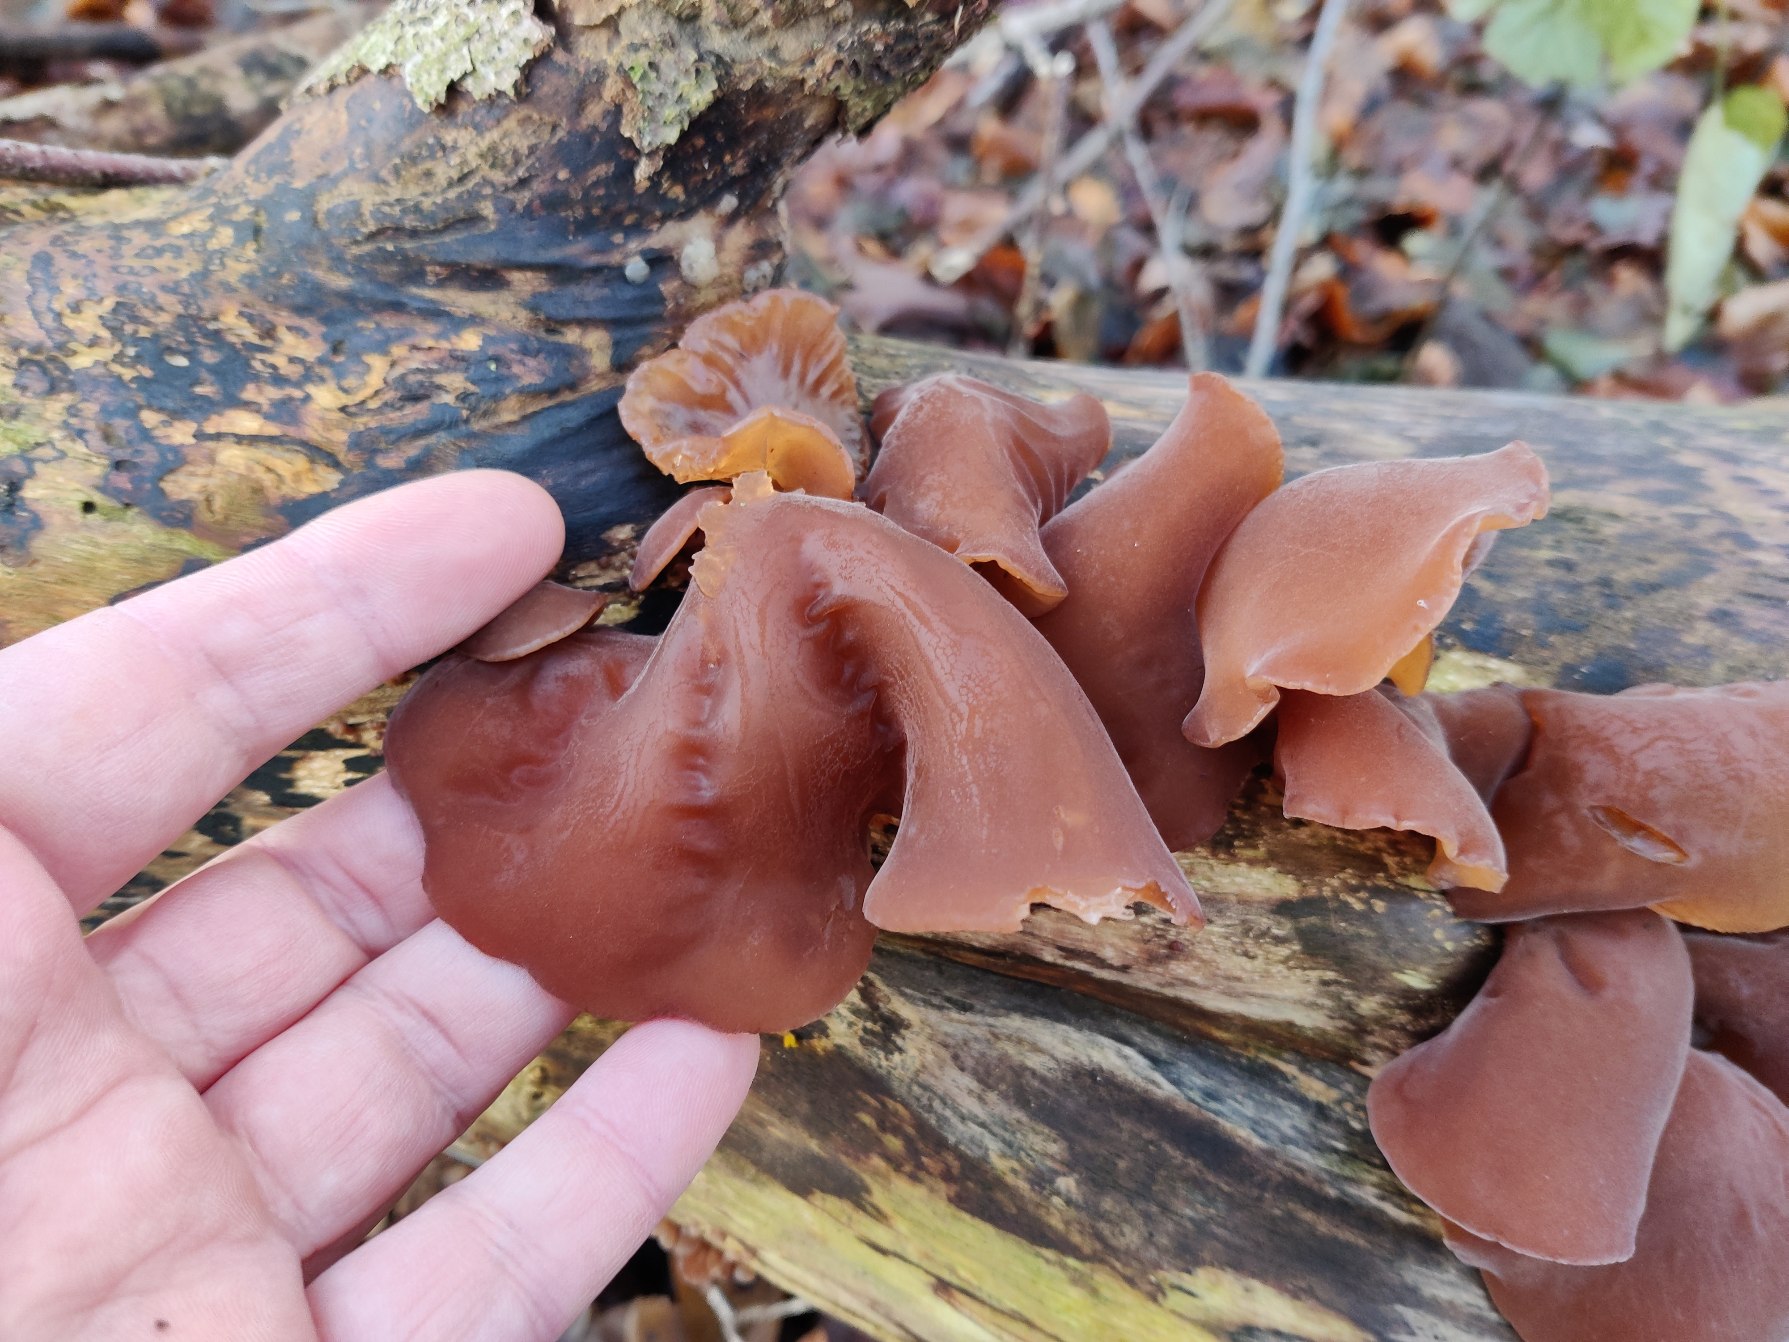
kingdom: Fungi
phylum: Basidiomycota
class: Agaricomycetes
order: Auriculariales
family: Auriculariaceae
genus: Auricularia
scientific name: Auricularia auricula-judae
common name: Almindelig judasøre
